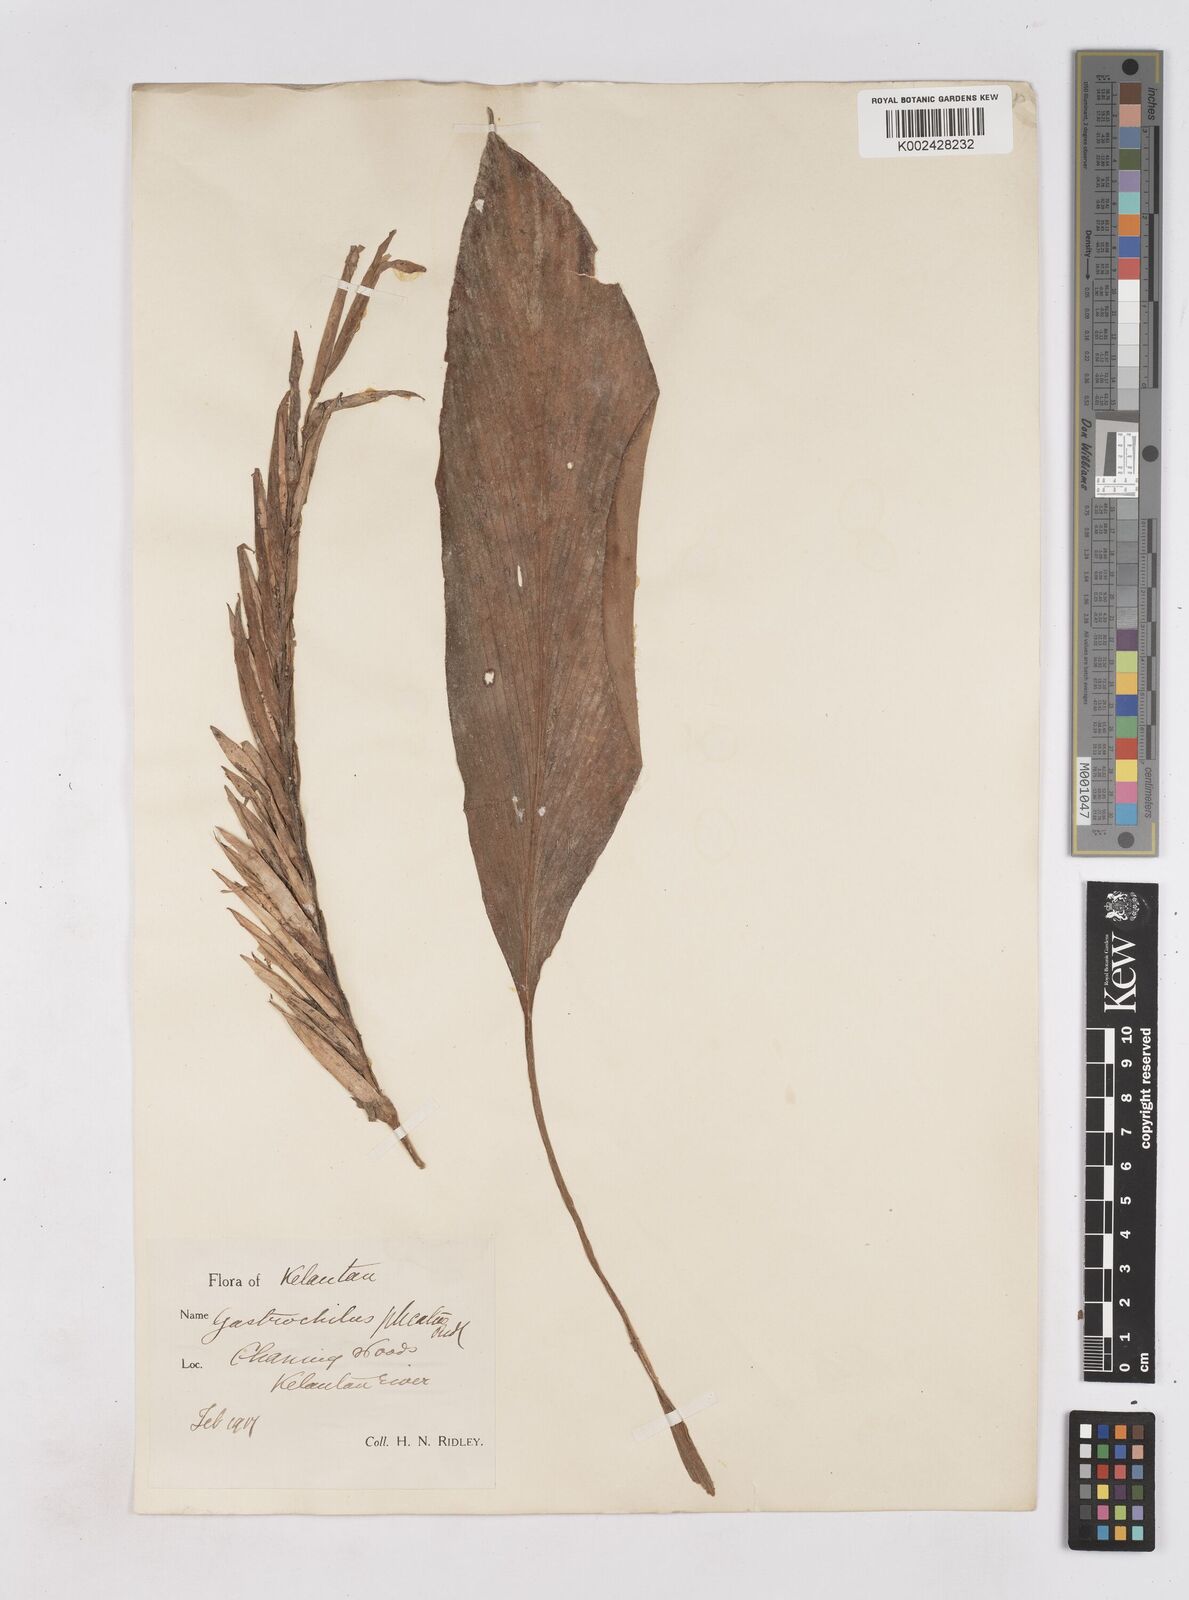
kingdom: Plantae
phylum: Tracheophyta
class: Liliopsida
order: Zingiberales
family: Zingiberaceae
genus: Boesenbergia
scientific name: Boesenbergia plicata
